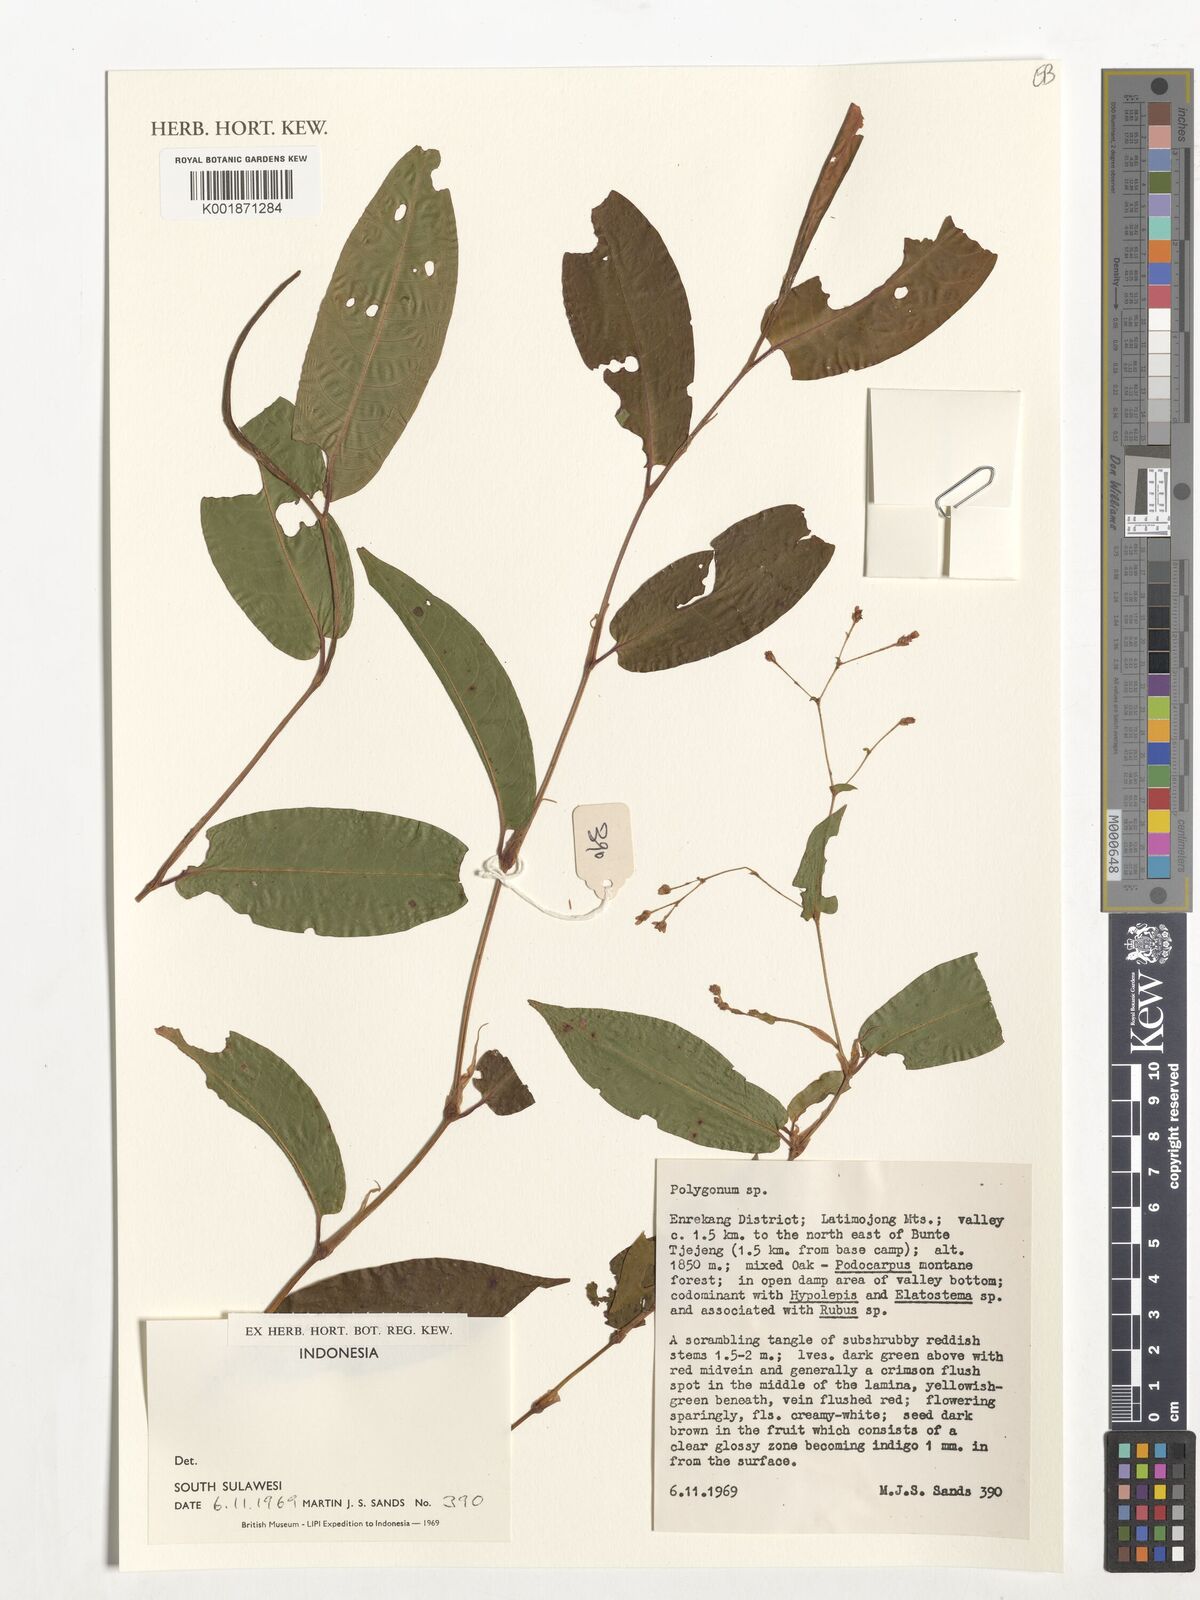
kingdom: Plantae
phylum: Tracheophyta
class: Magnoliopsida
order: Caryophyllales
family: Polygonaceae
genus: Polygonum
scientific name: Polygonum
